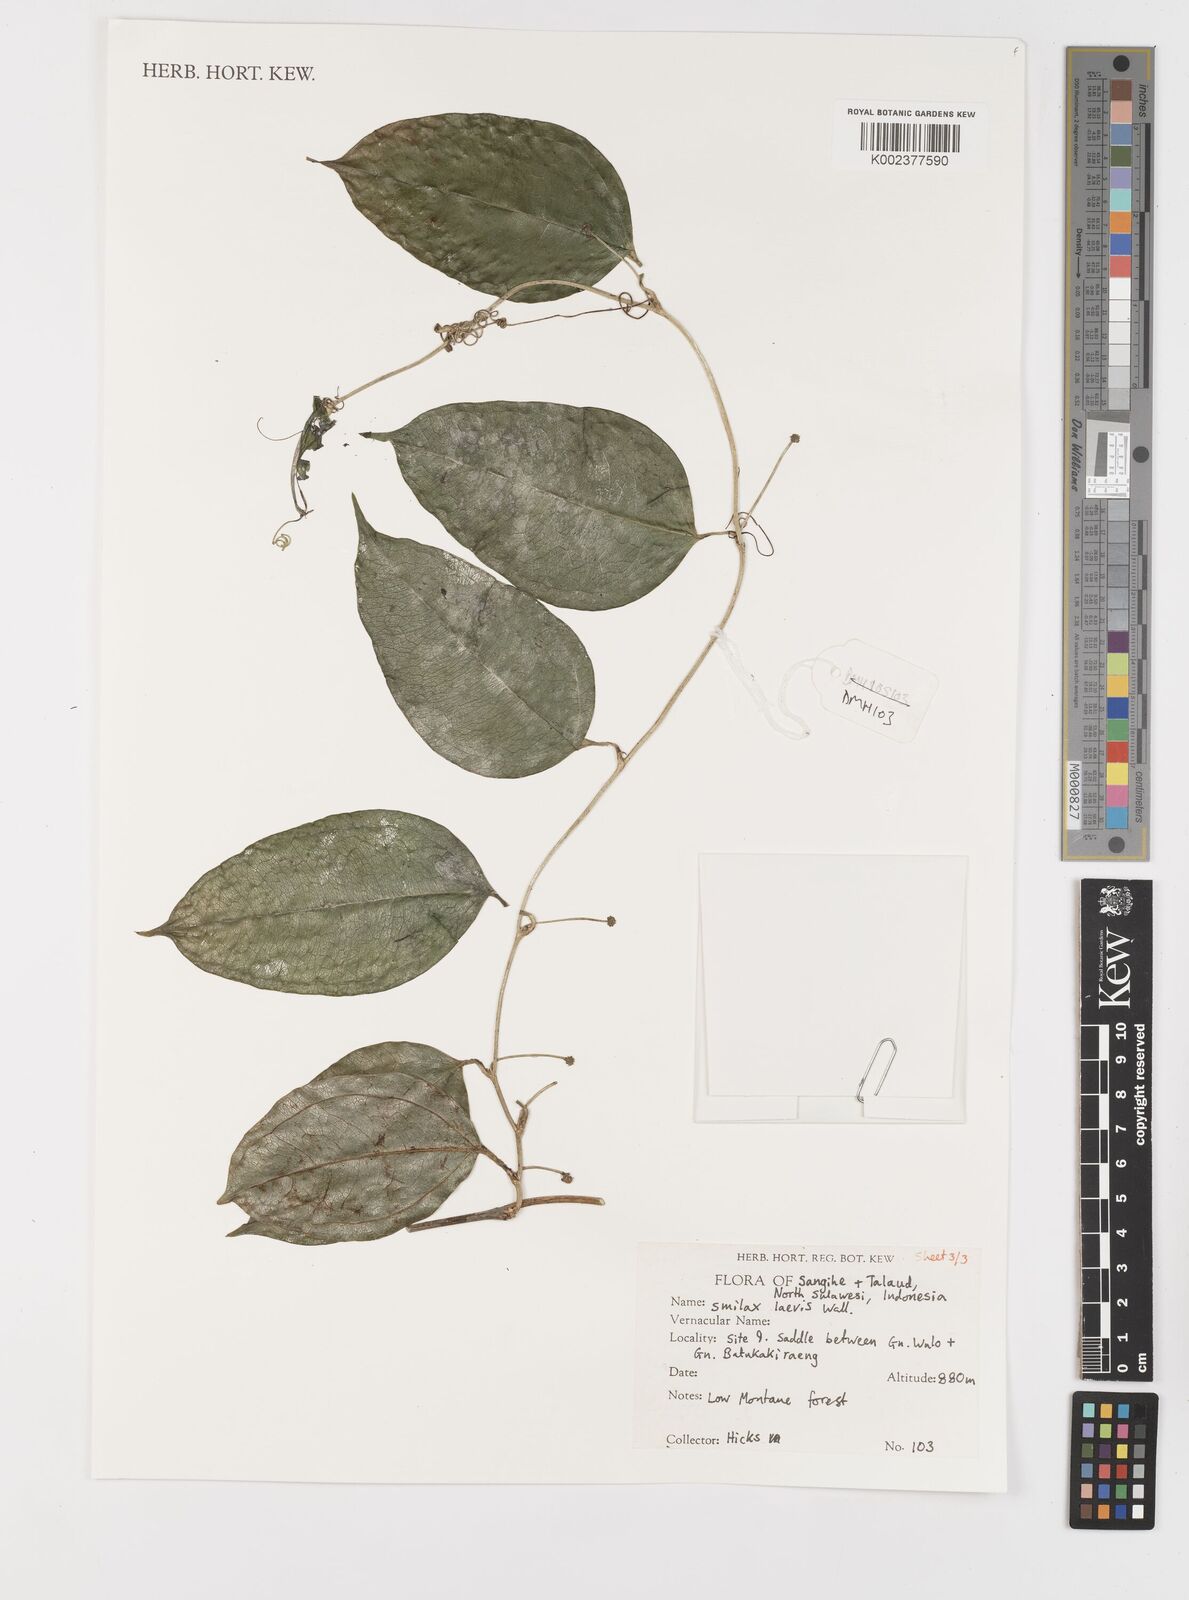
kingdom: Plantae
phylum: Tracheophyta
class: Liliopsida
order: Liliales
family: Smilacaceae
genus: Smilax
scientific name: Smilax laevis
